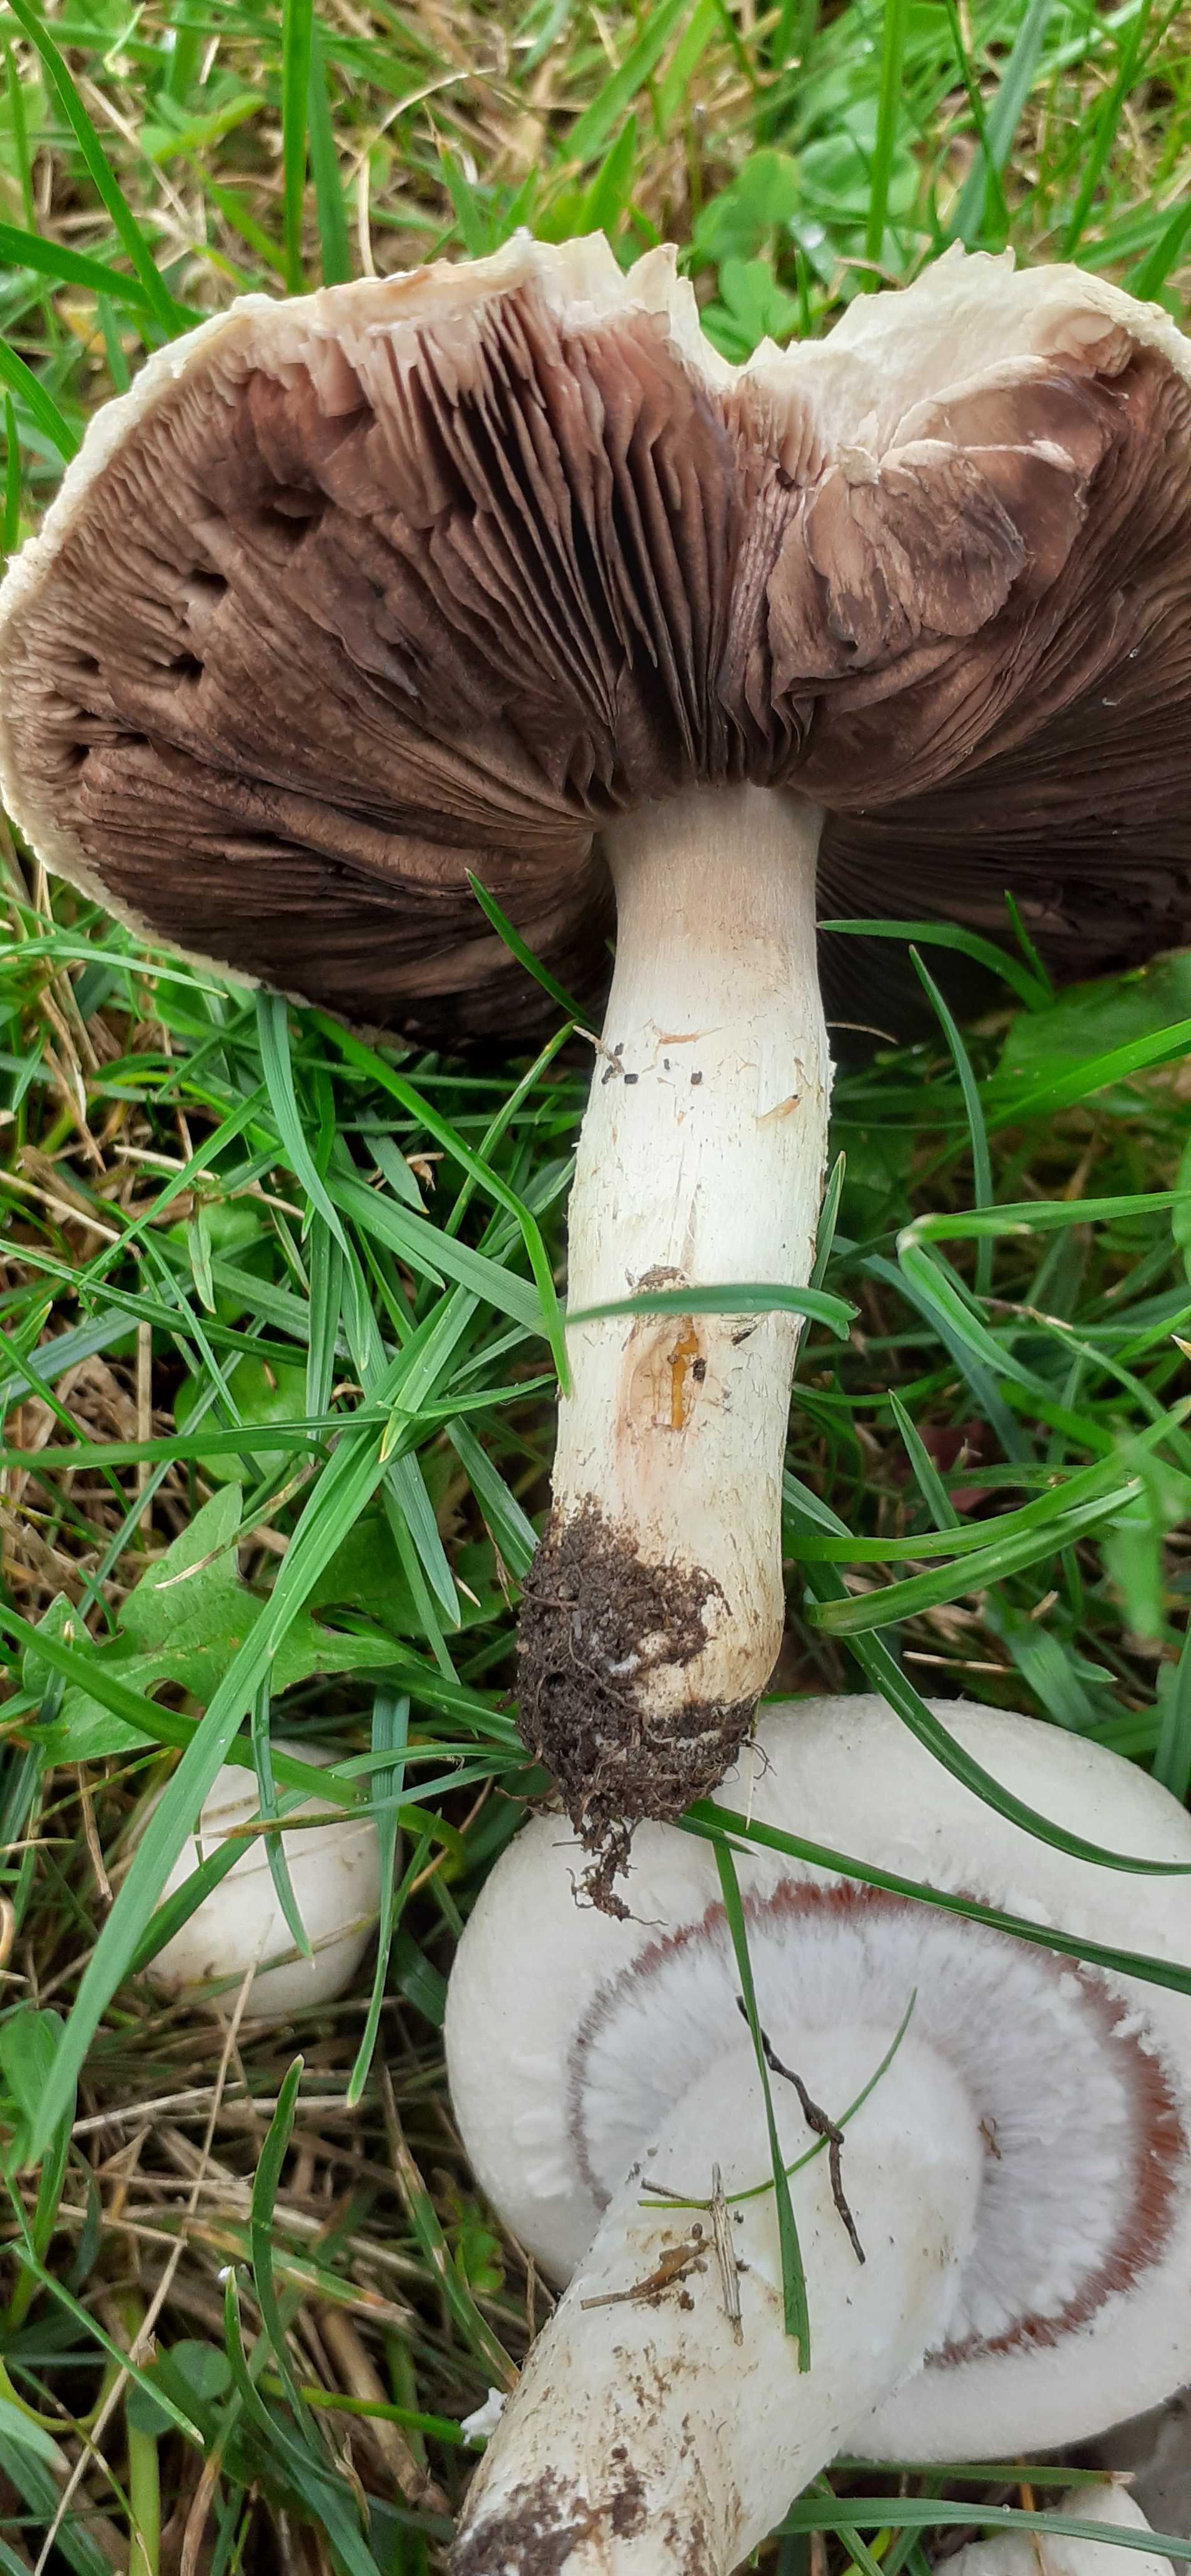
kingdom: Fungi
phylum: Basidiomycota
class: Agaricomycetes
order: Agaricales
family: Agaricaceae
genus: Agaricus
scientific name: Agaricus campestris
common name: mark-champignon
